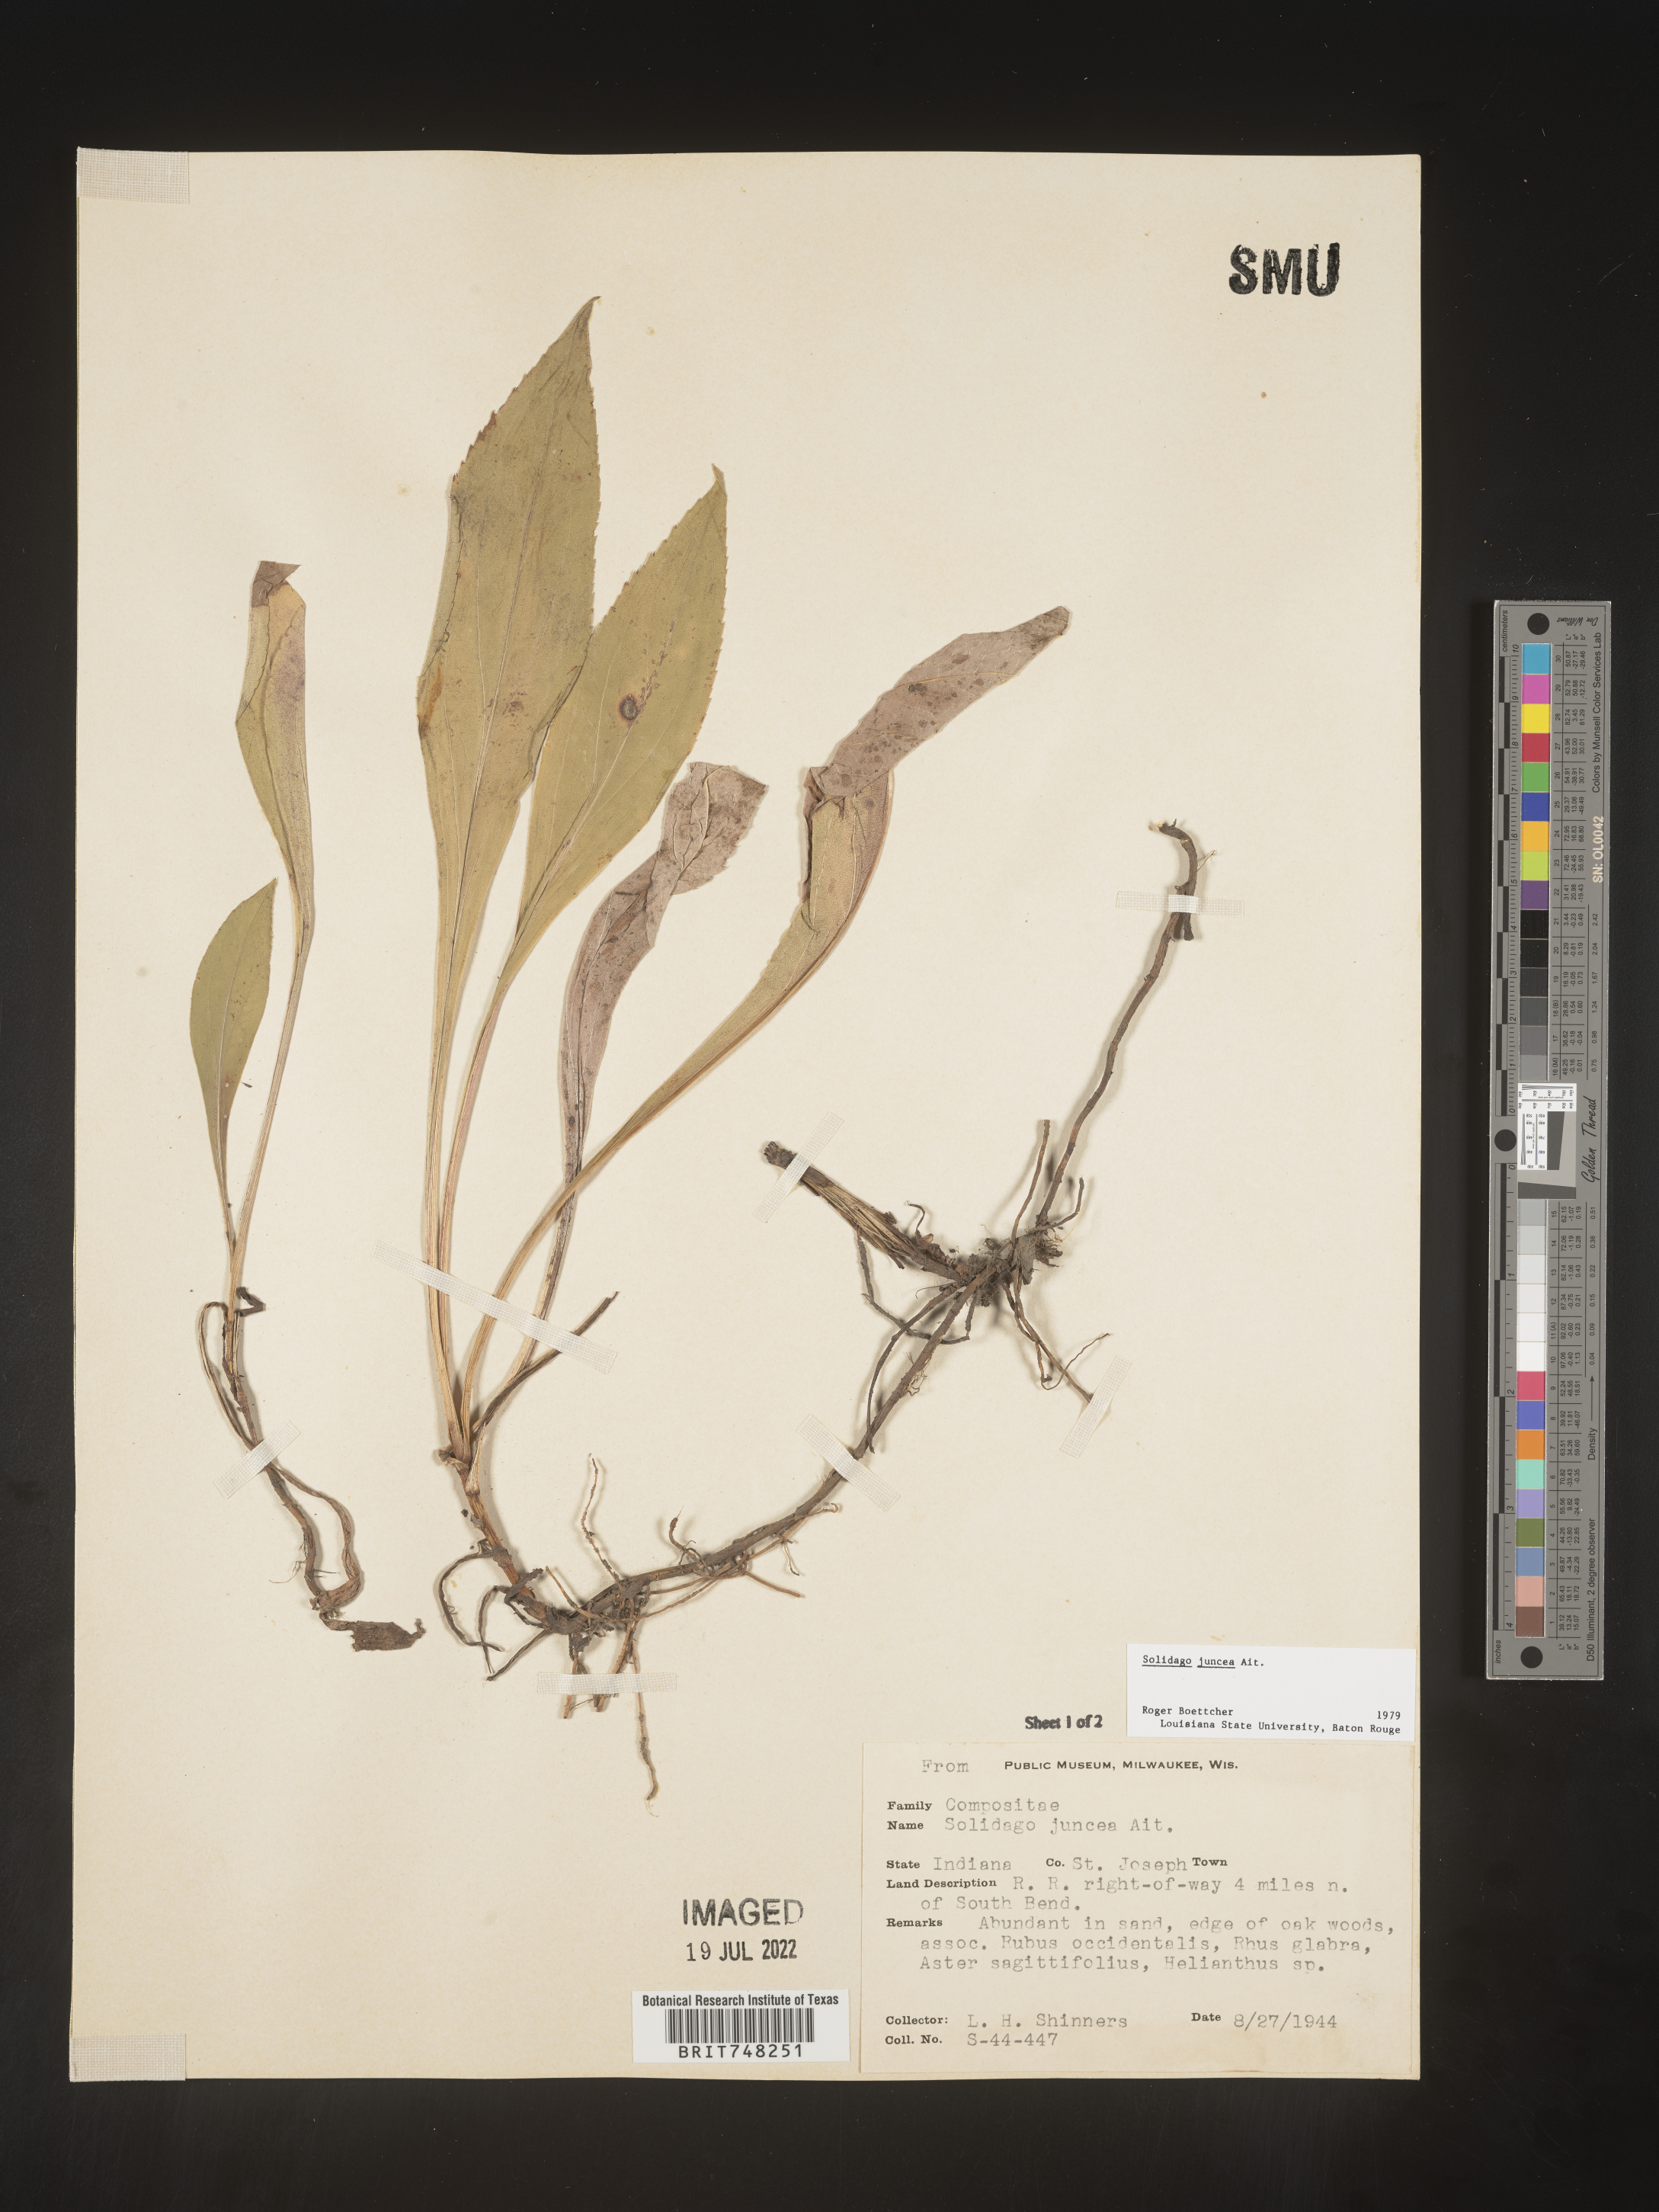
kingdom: Plantae
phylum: Tracheophyta
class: Magnoliopsida
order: Asterales
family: Asteraceae
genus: Solidago
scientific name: Solidago juncea
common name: Early goldenrod
